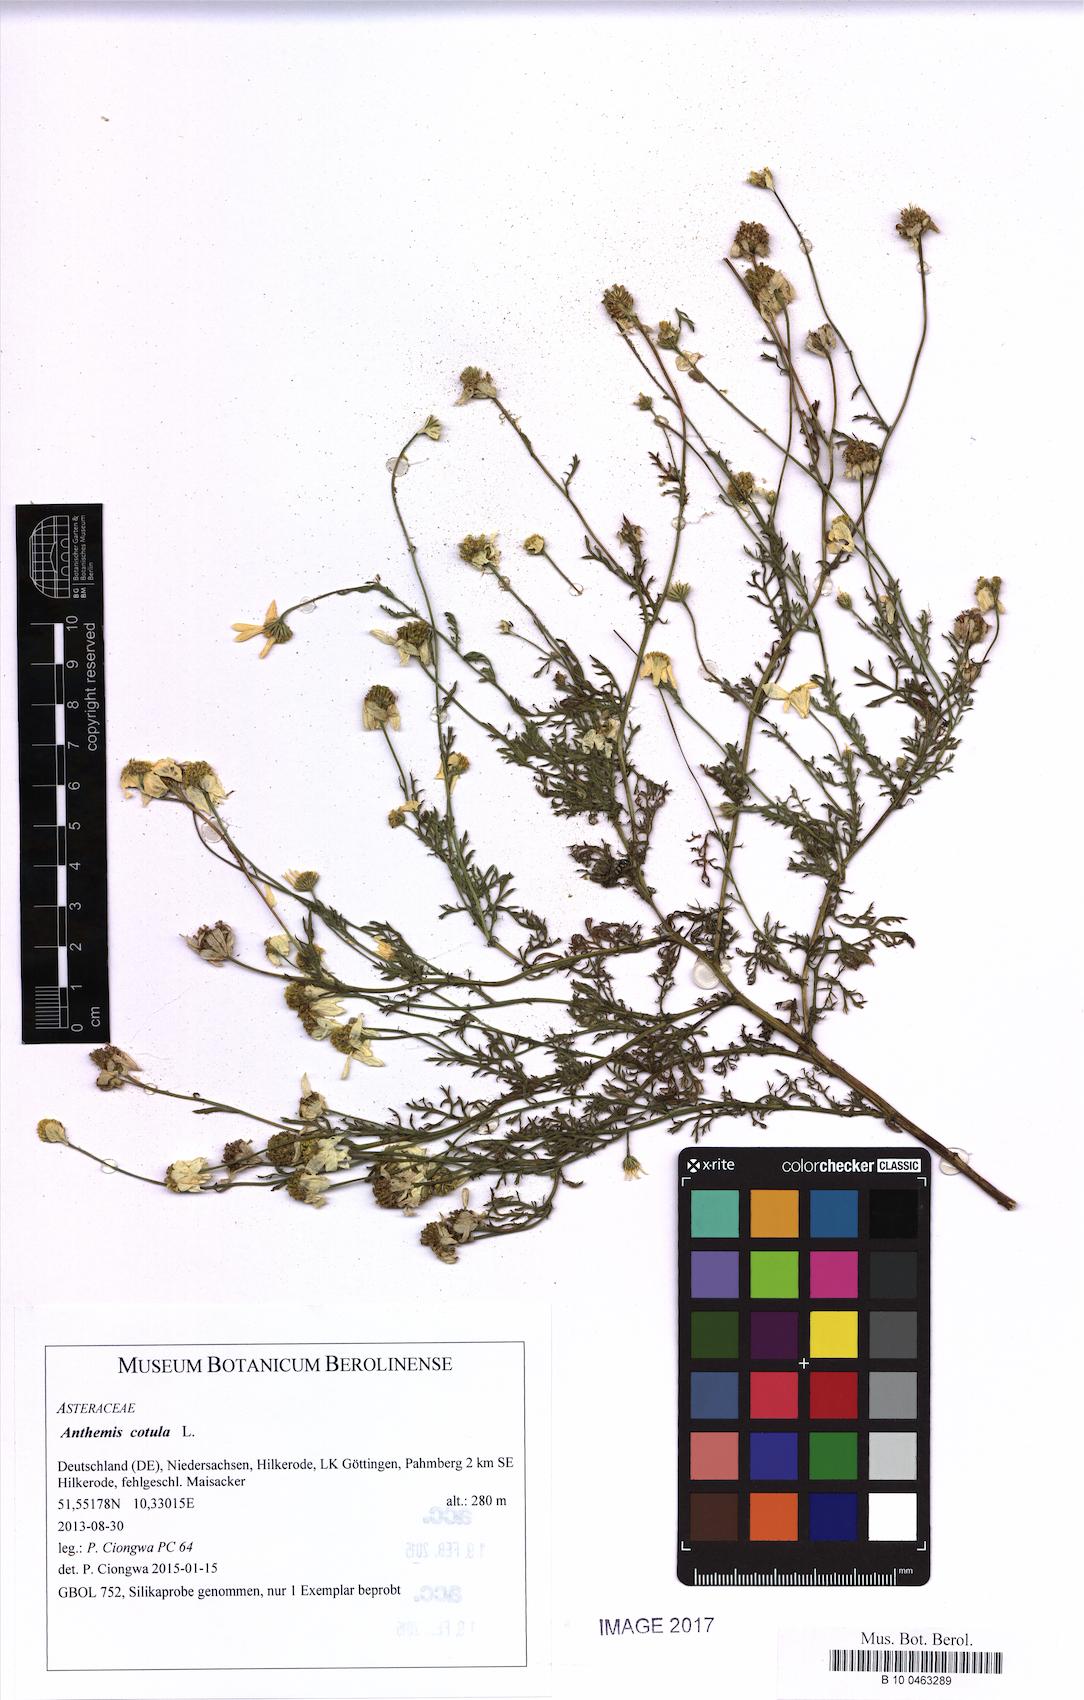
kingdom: Plantae
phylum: Tracheophyta
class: Magnoliopsida
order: Asterales
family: Asteraceae
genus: Anthemis
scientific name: Anthemis cotula
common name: Stinking chamomile
